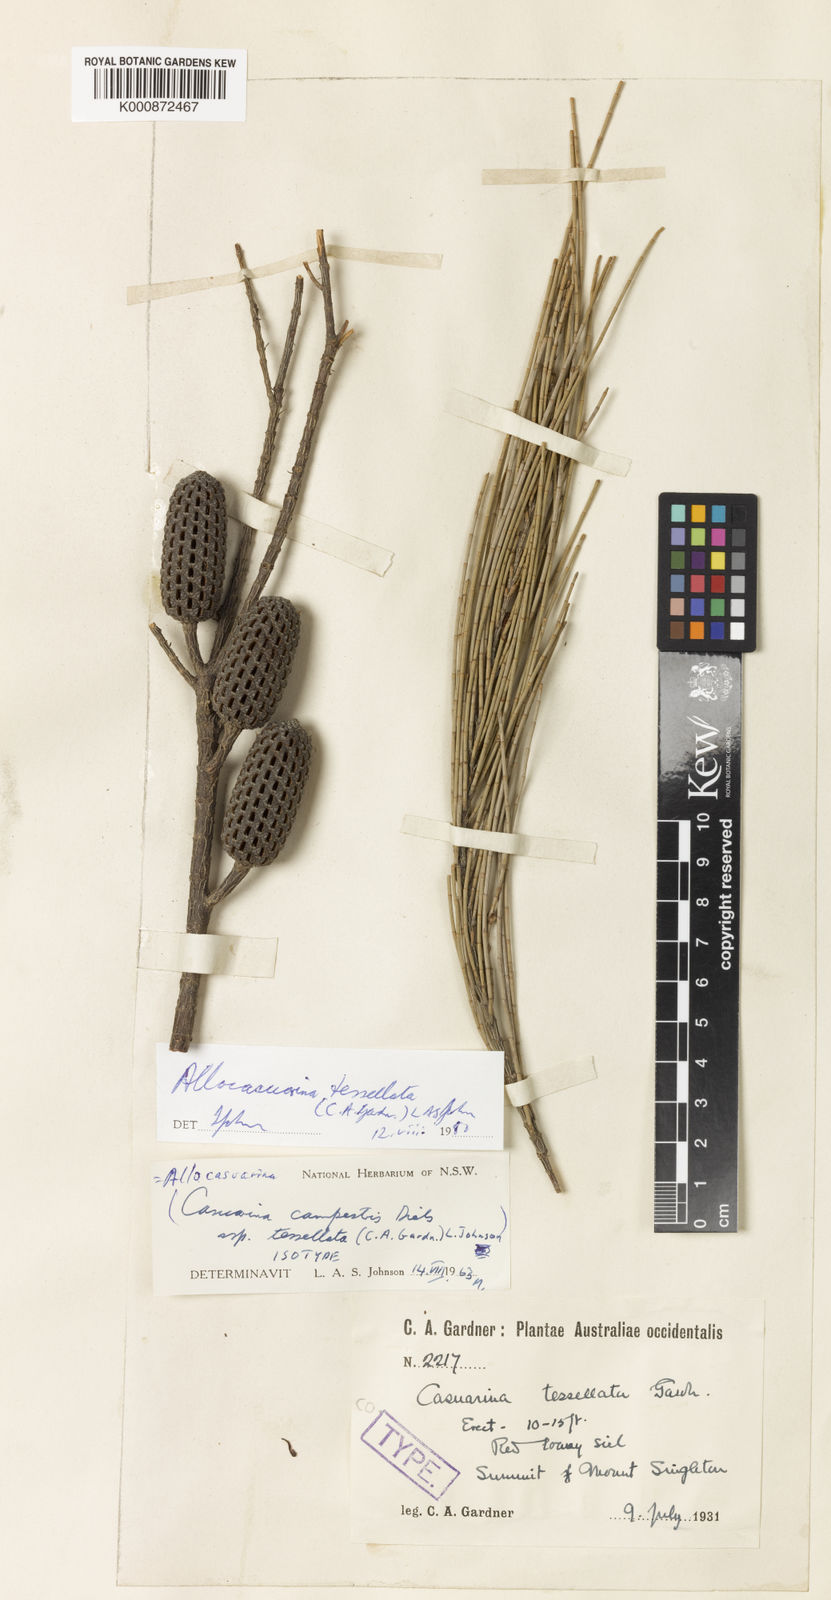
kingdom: Plantae
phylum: Tracheophyta
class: Magnoliopsida
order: Fagales
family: Casuarinaceae
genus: Allocasuarina
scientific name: Allocasuarina tessellata
